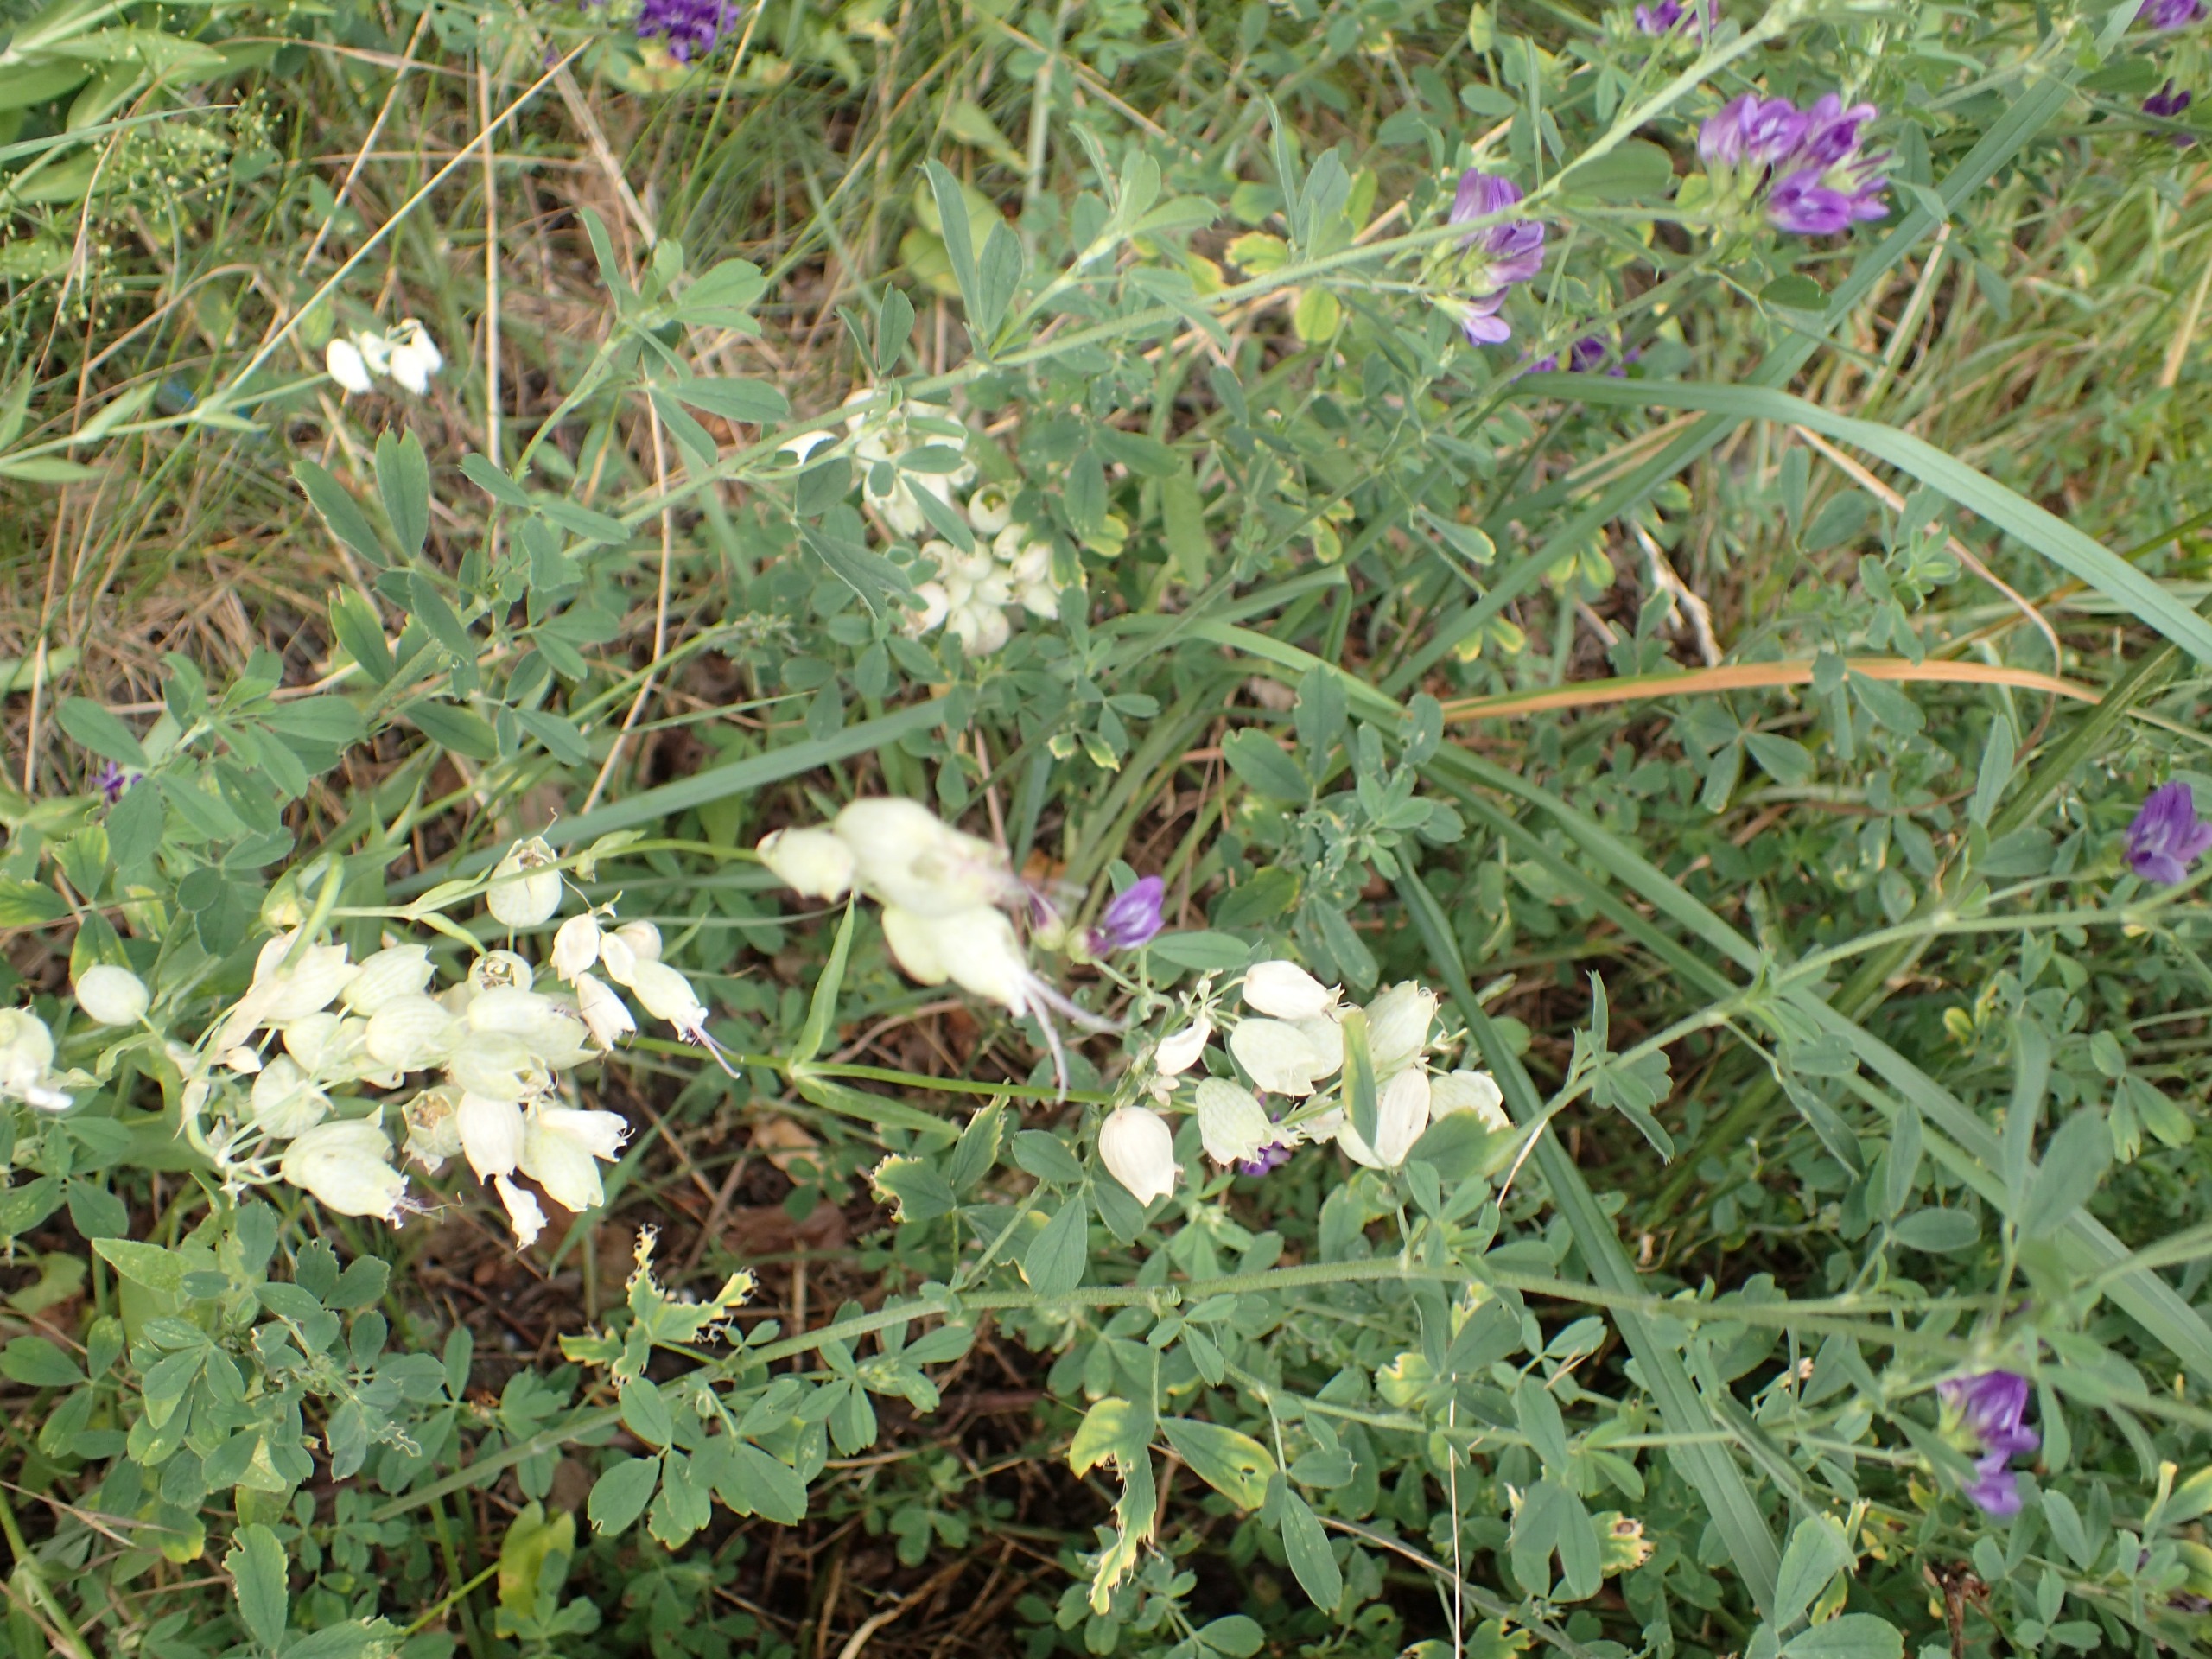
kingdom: Plantae
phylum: Tracheophyta
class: Magnoliopsida
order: Caryophyllales
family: Caryophyllaceae
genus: Silene
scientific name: Silene vulgaris
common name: Blæresmælde
